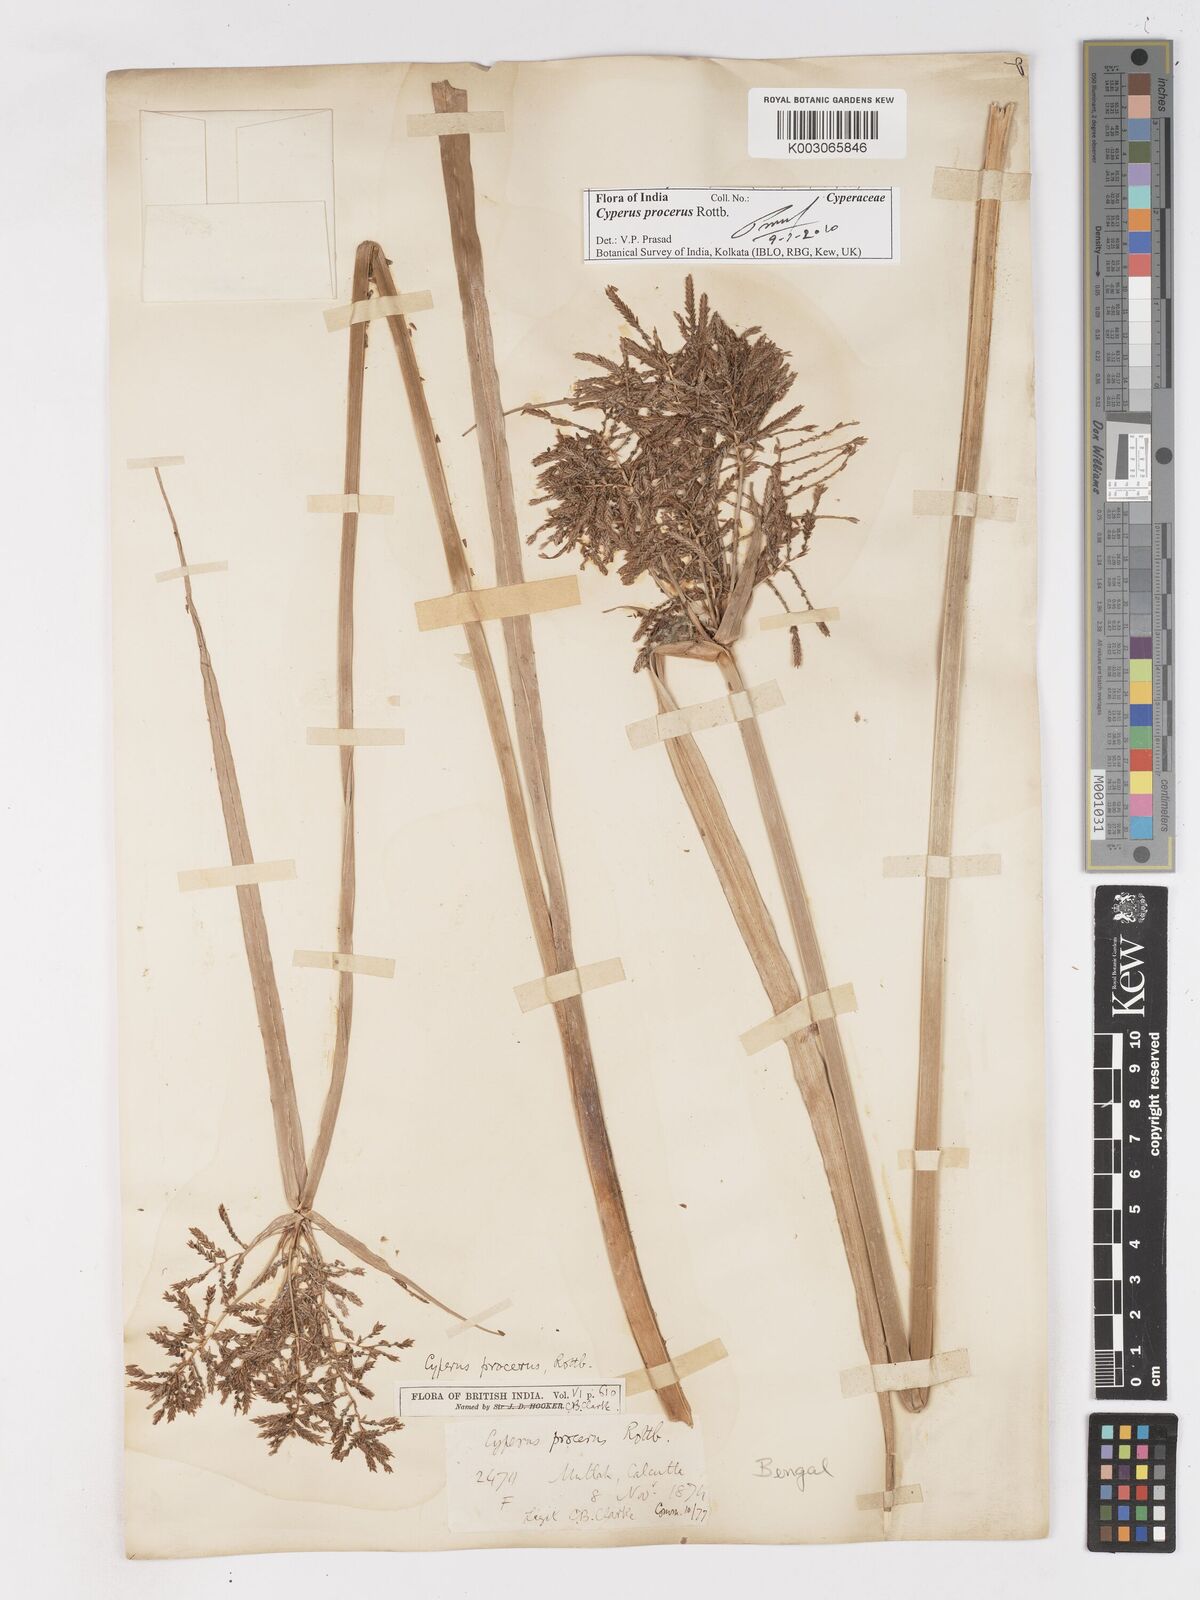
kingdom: Plantae
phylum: Tracheophyta
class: Liliopsida
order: Poales
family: Cyperaceae
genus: Cyperus
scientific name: Cyperus procerus
